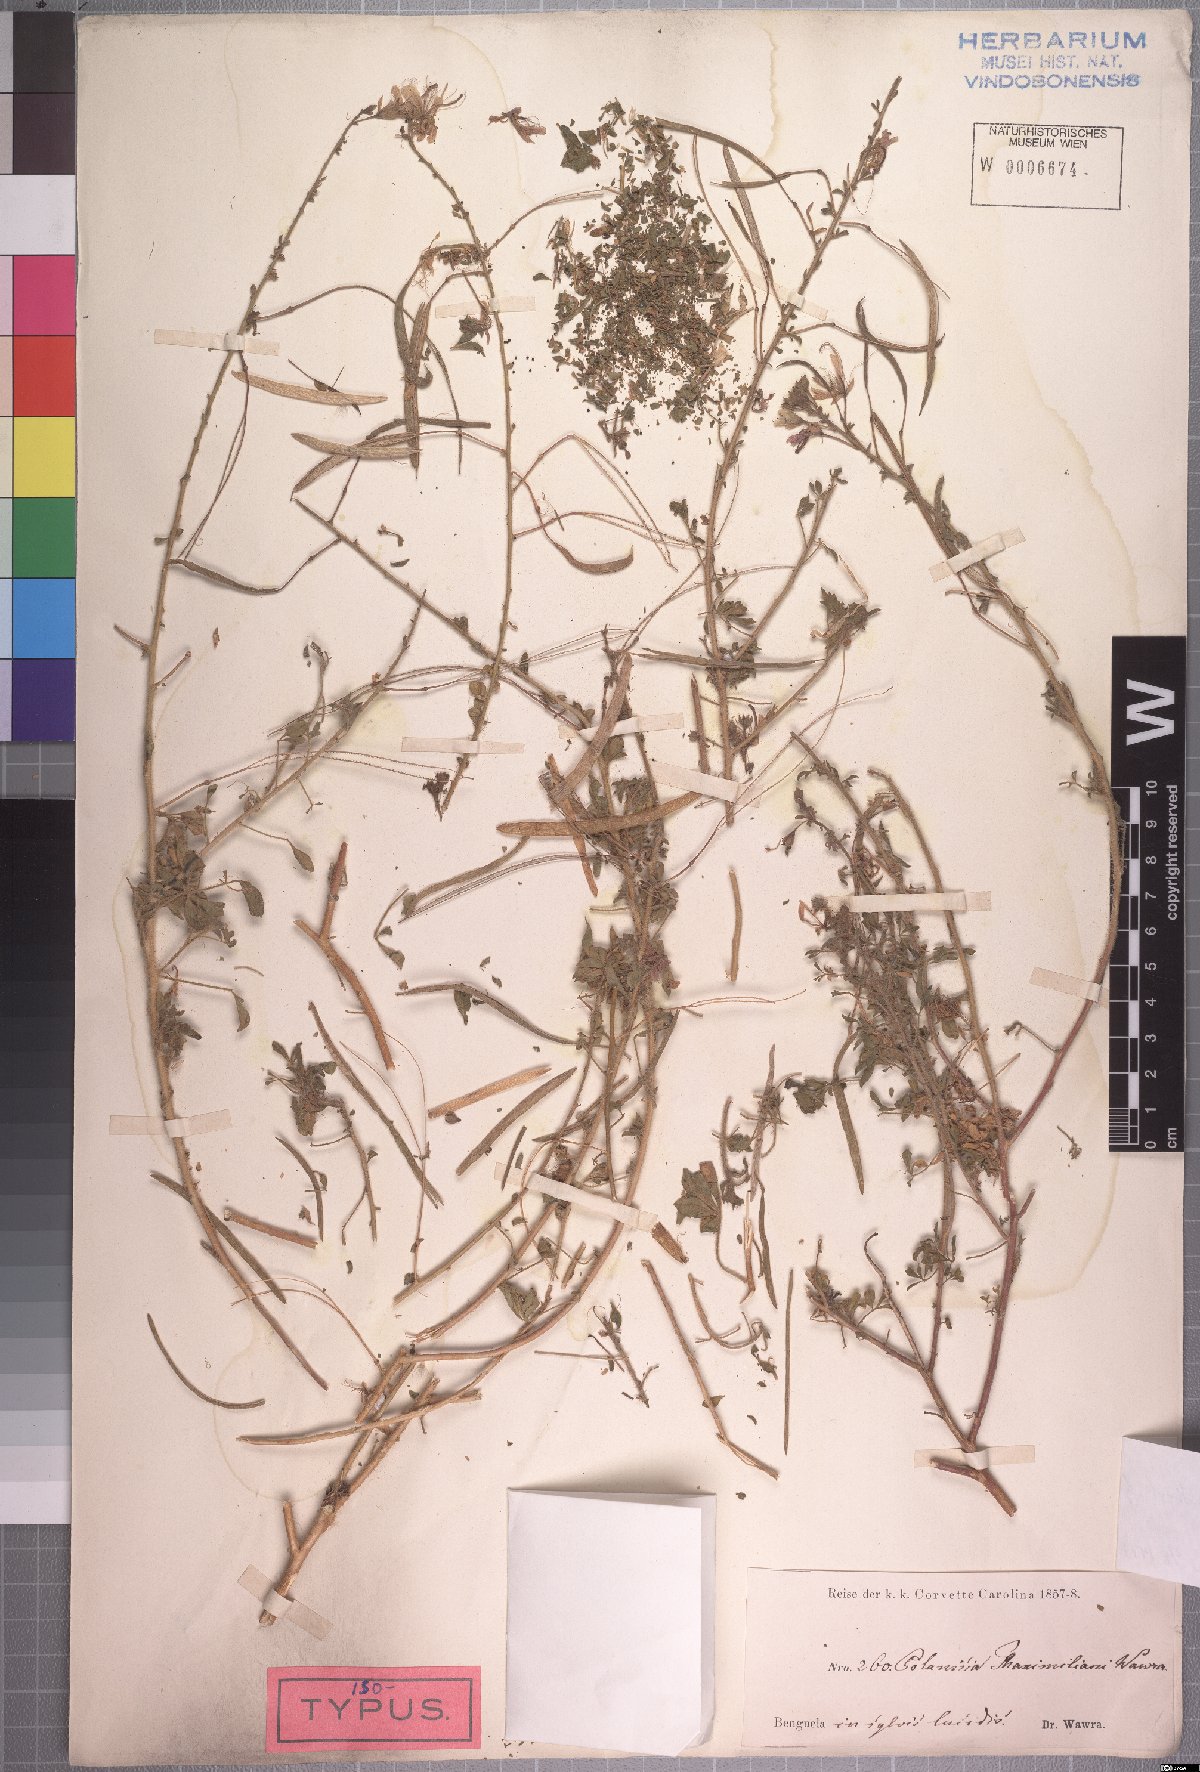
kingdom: Plantae
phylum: Tracheophyta
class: Magnoliopsida
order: Brassicales
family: Cleomaceae
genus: Kersia
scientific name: Kersia foliosa
